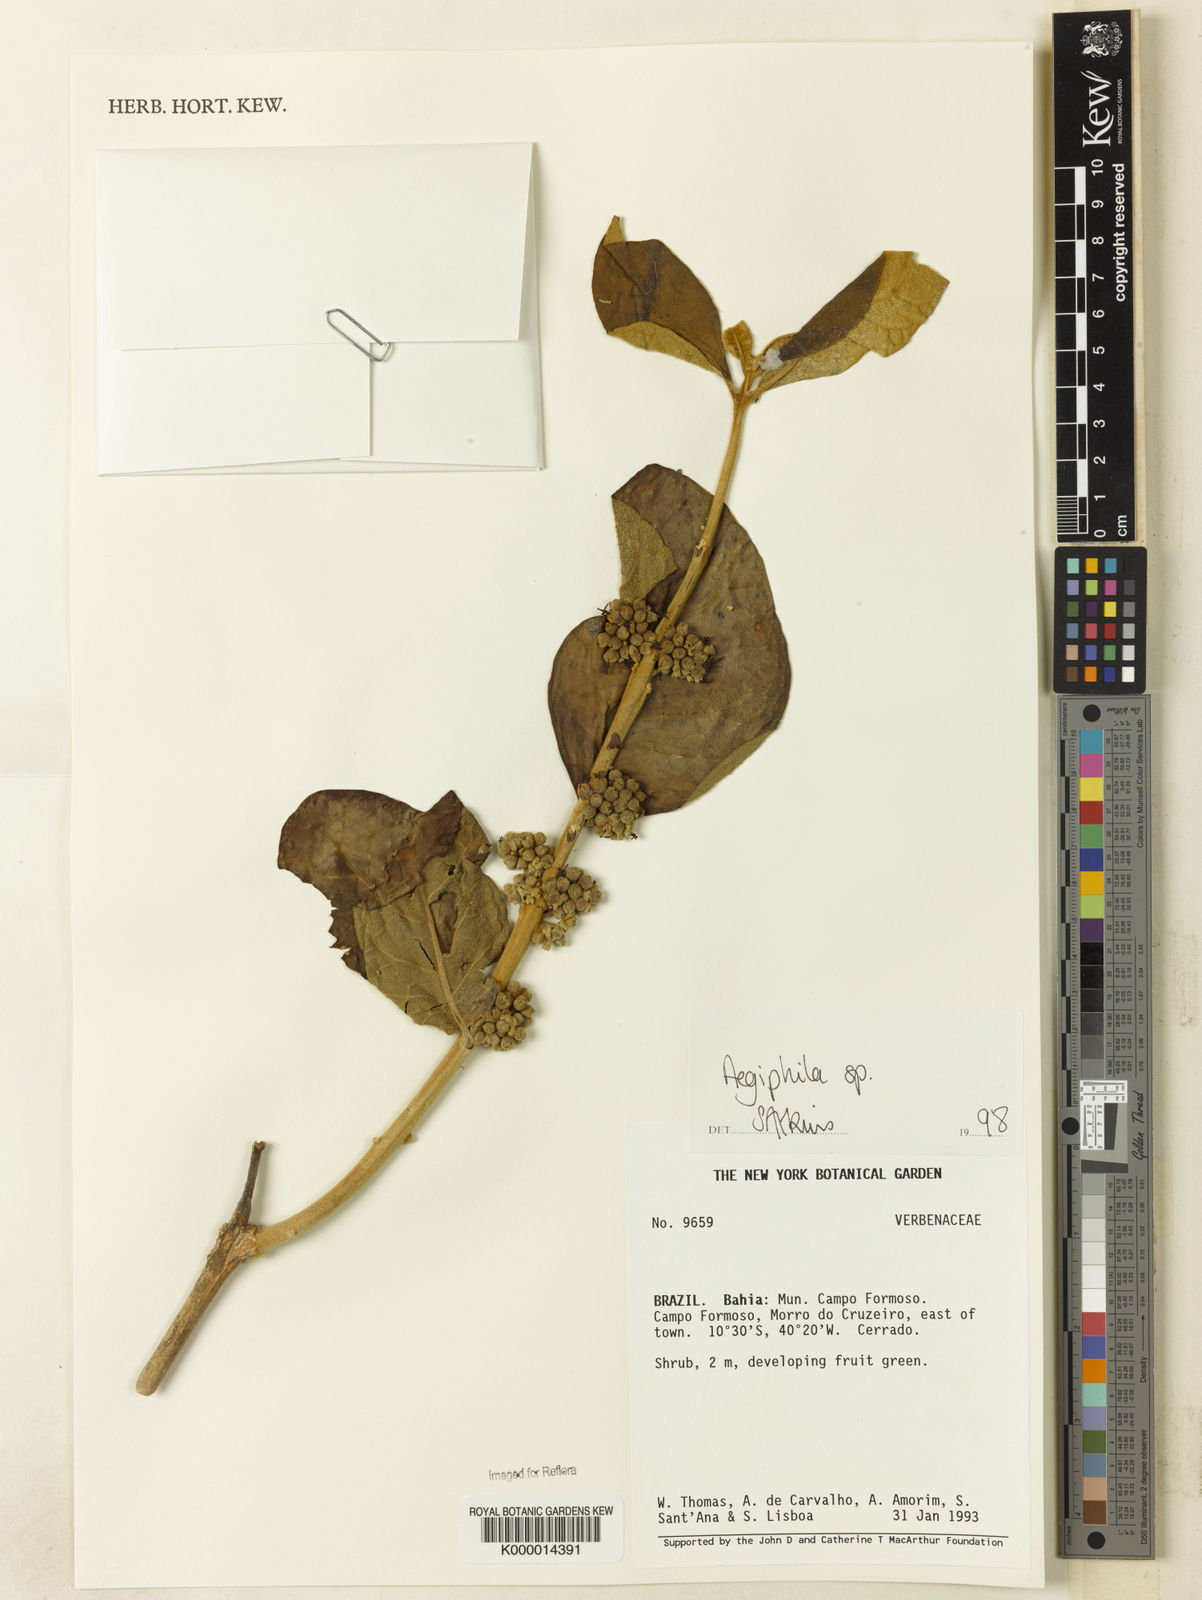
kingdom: Plantae
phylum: Tracheophyta
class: Magnoliopsida
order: Lamiales
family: Lamiaceae
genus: Aegiphila
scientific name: Aegiphila
